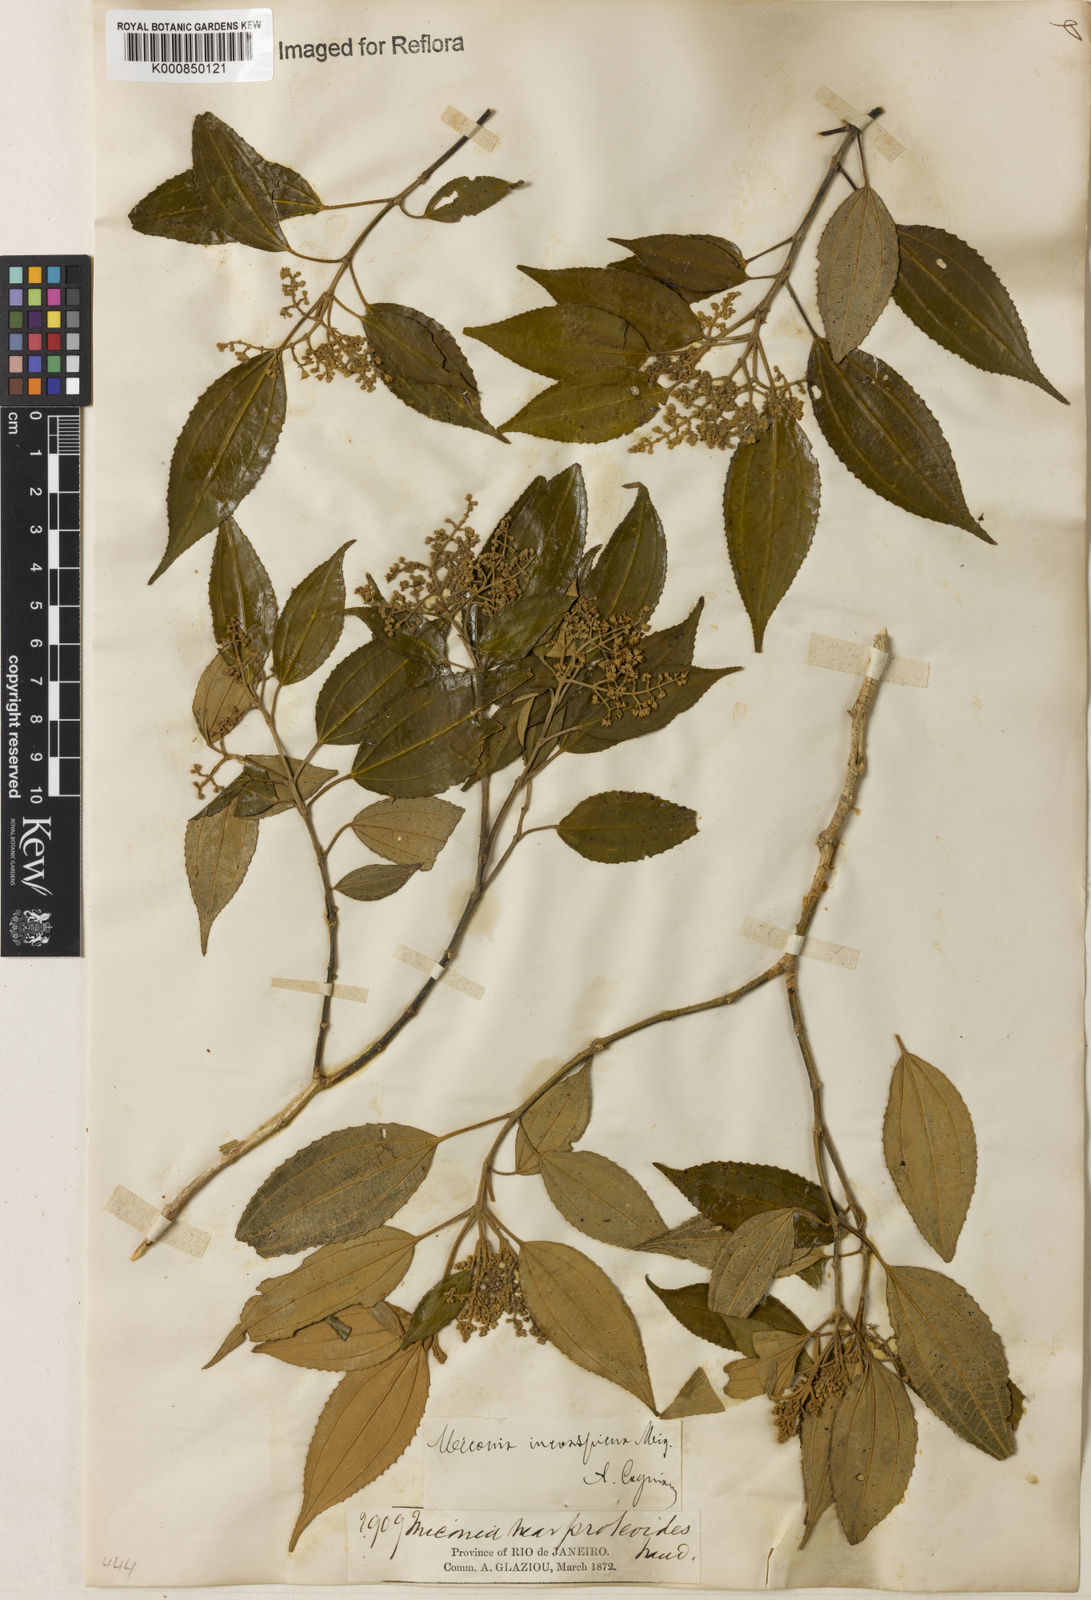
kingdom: Plantae
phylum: Tracheophyta
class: Magnoliopsida
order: Myrtales
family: Melastomataceae
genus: Miconia
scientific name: Miconia inconspicua
